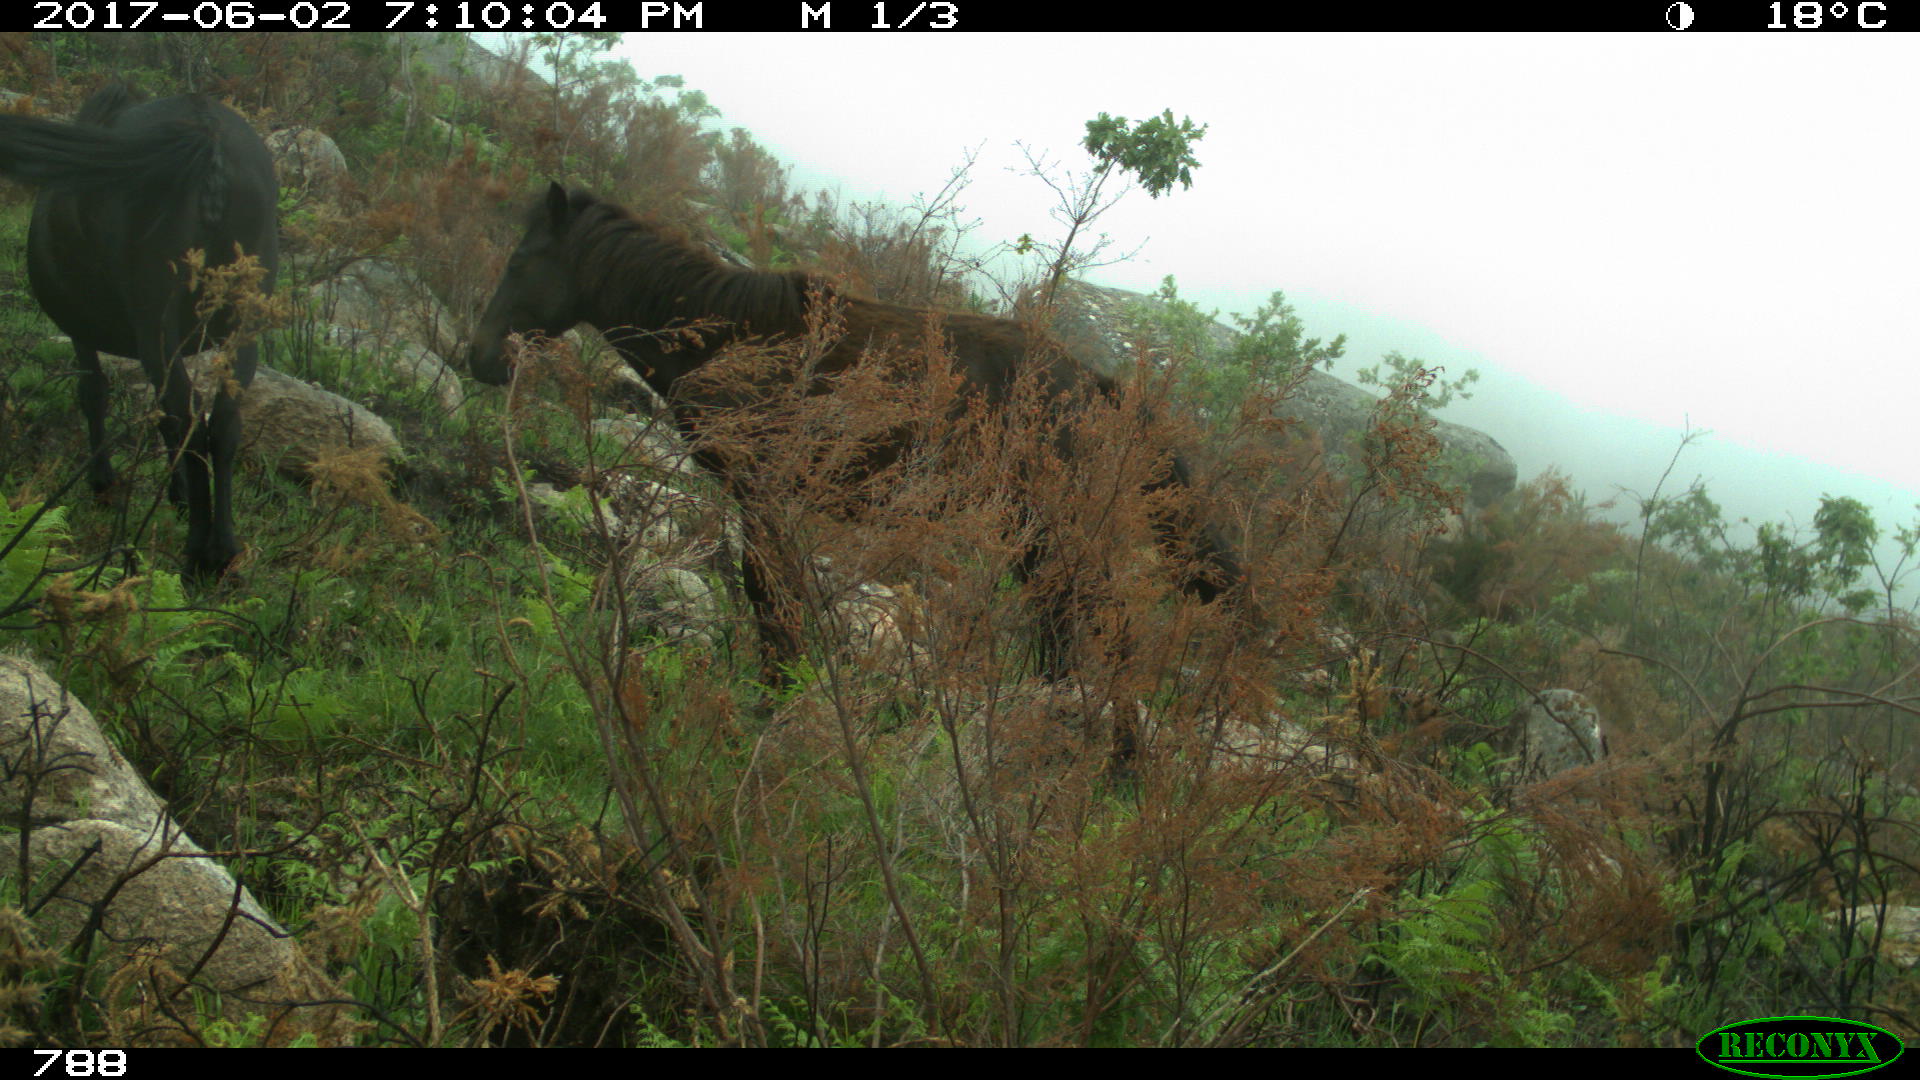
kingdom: Animalia
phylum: Chordata
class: Mammalia
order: Perissodactyla
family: Equidae
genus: Equus
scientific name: Equus caballus
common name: Horse
